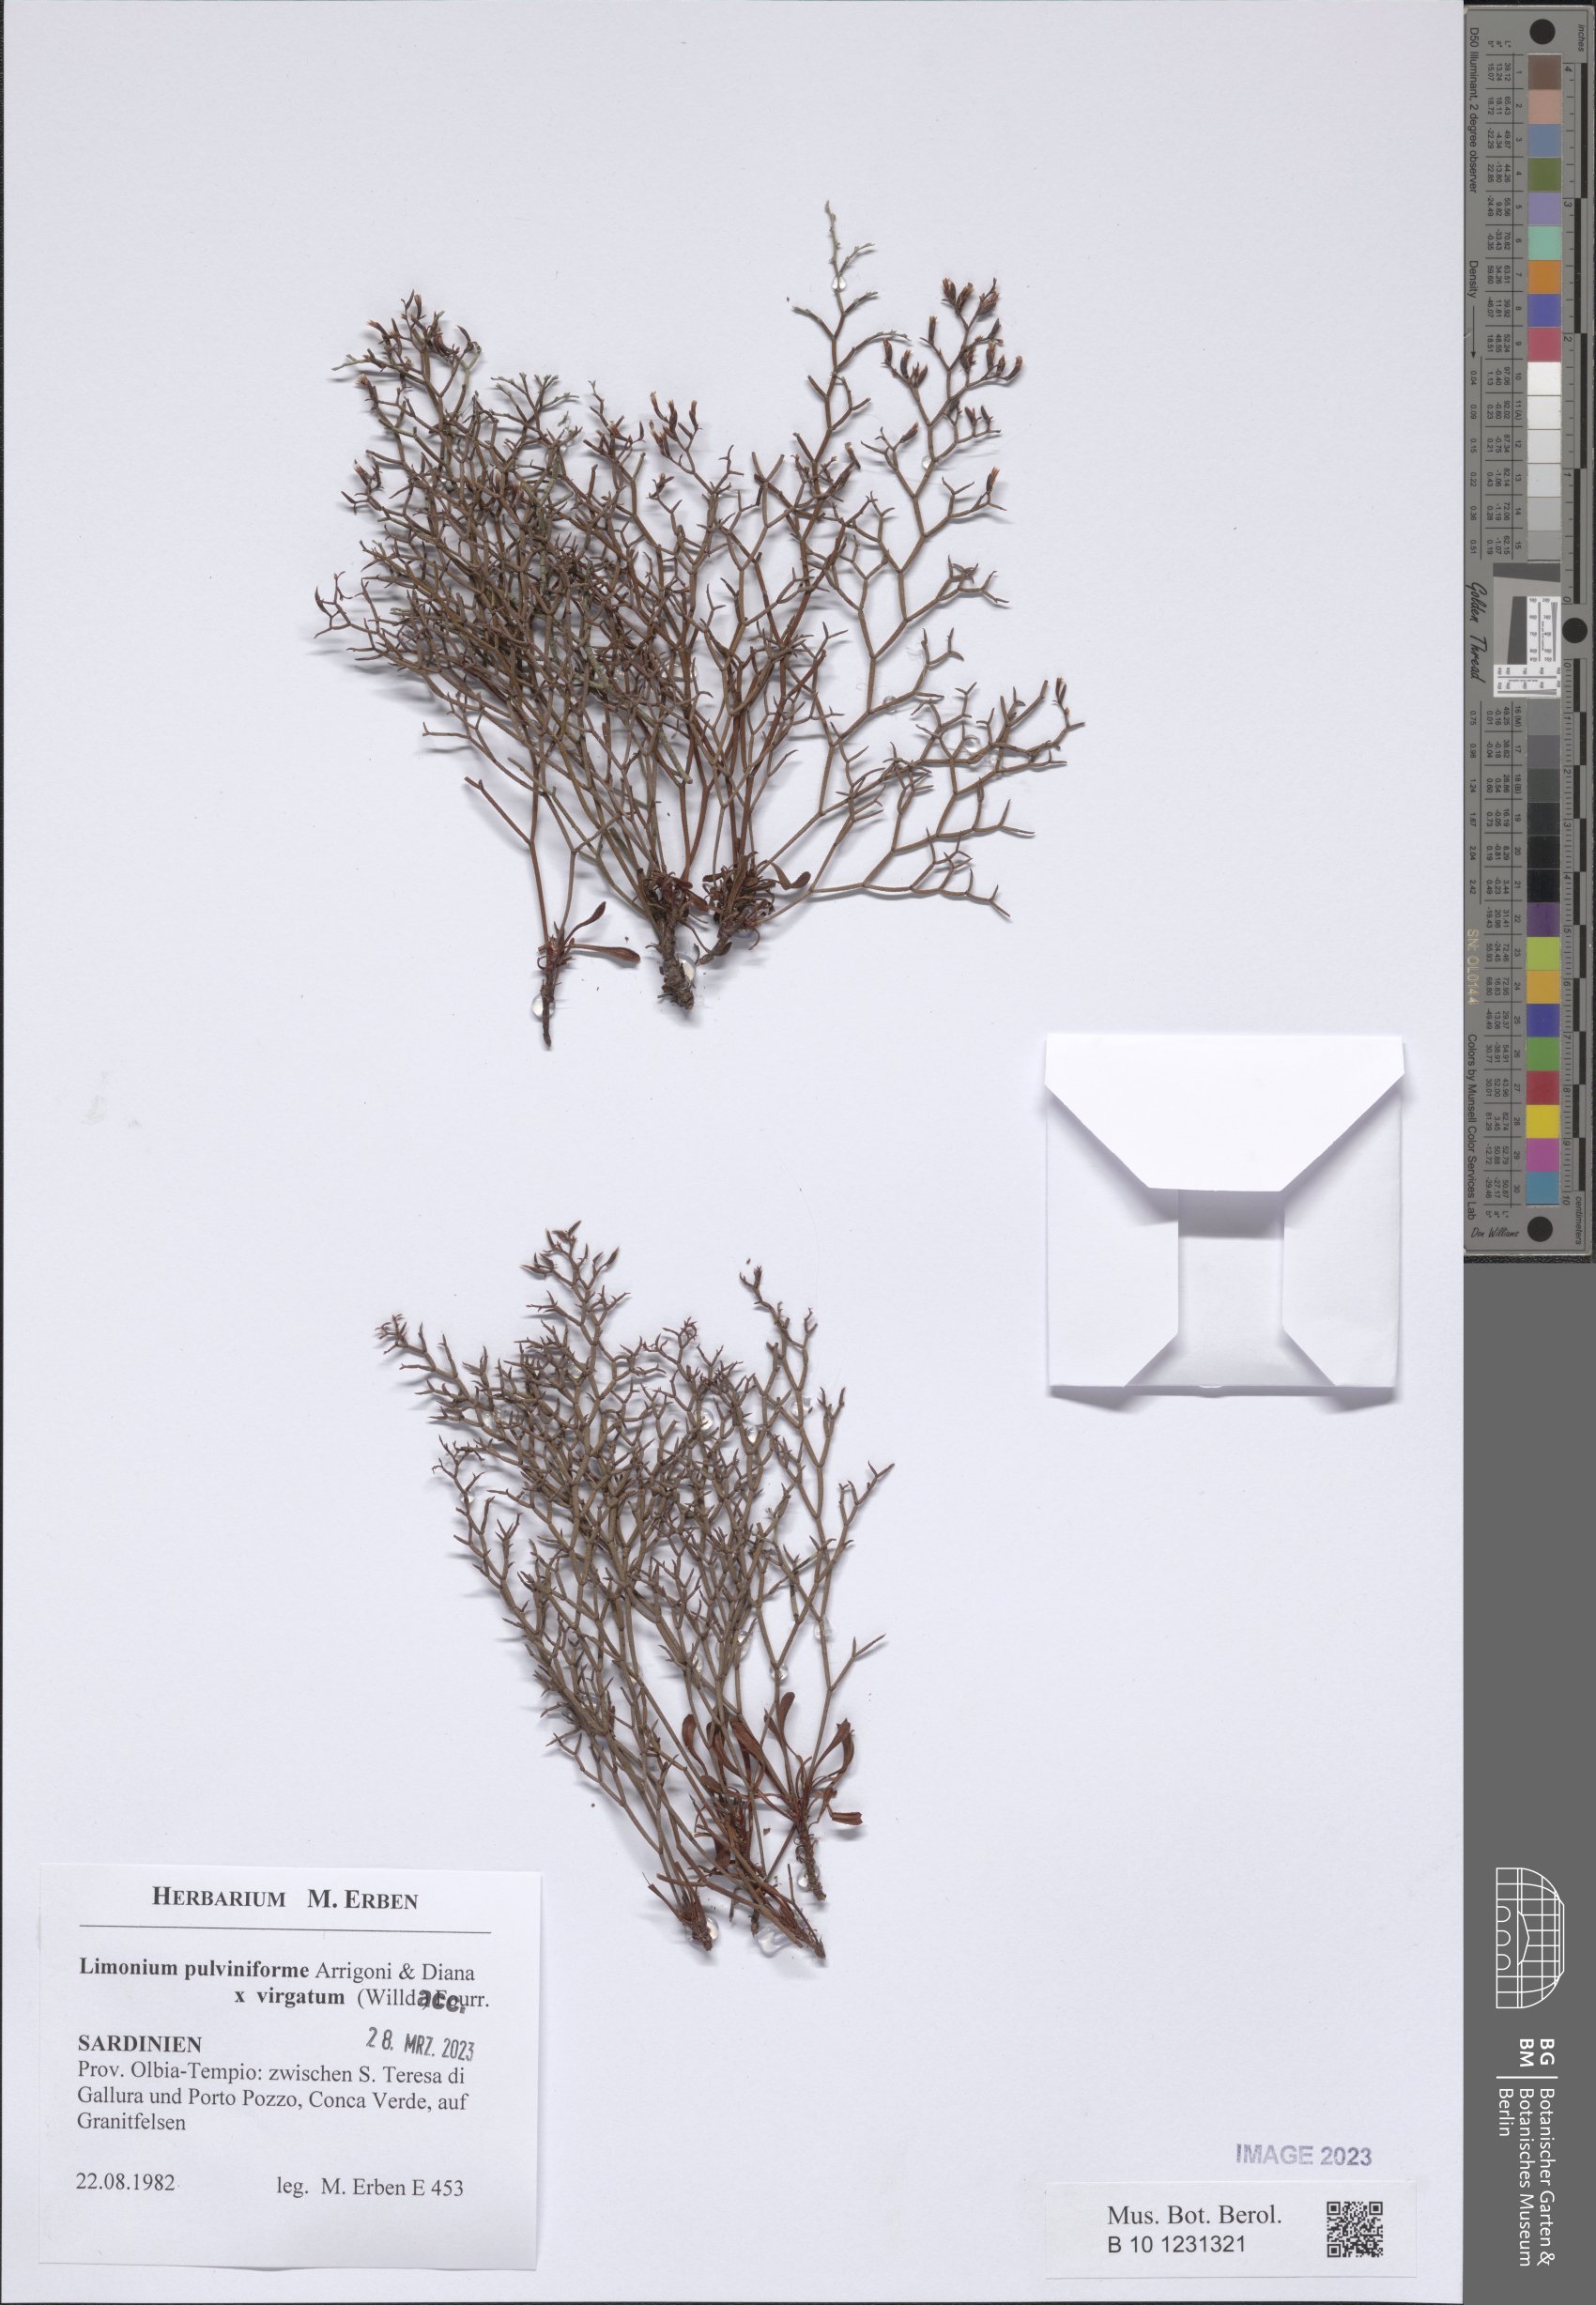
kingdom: Plantae
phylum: Tracheophyta
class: Magnoliopsida
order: Caryophyllales
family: Plumbaginaceae
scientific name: Plumbaginaceae
